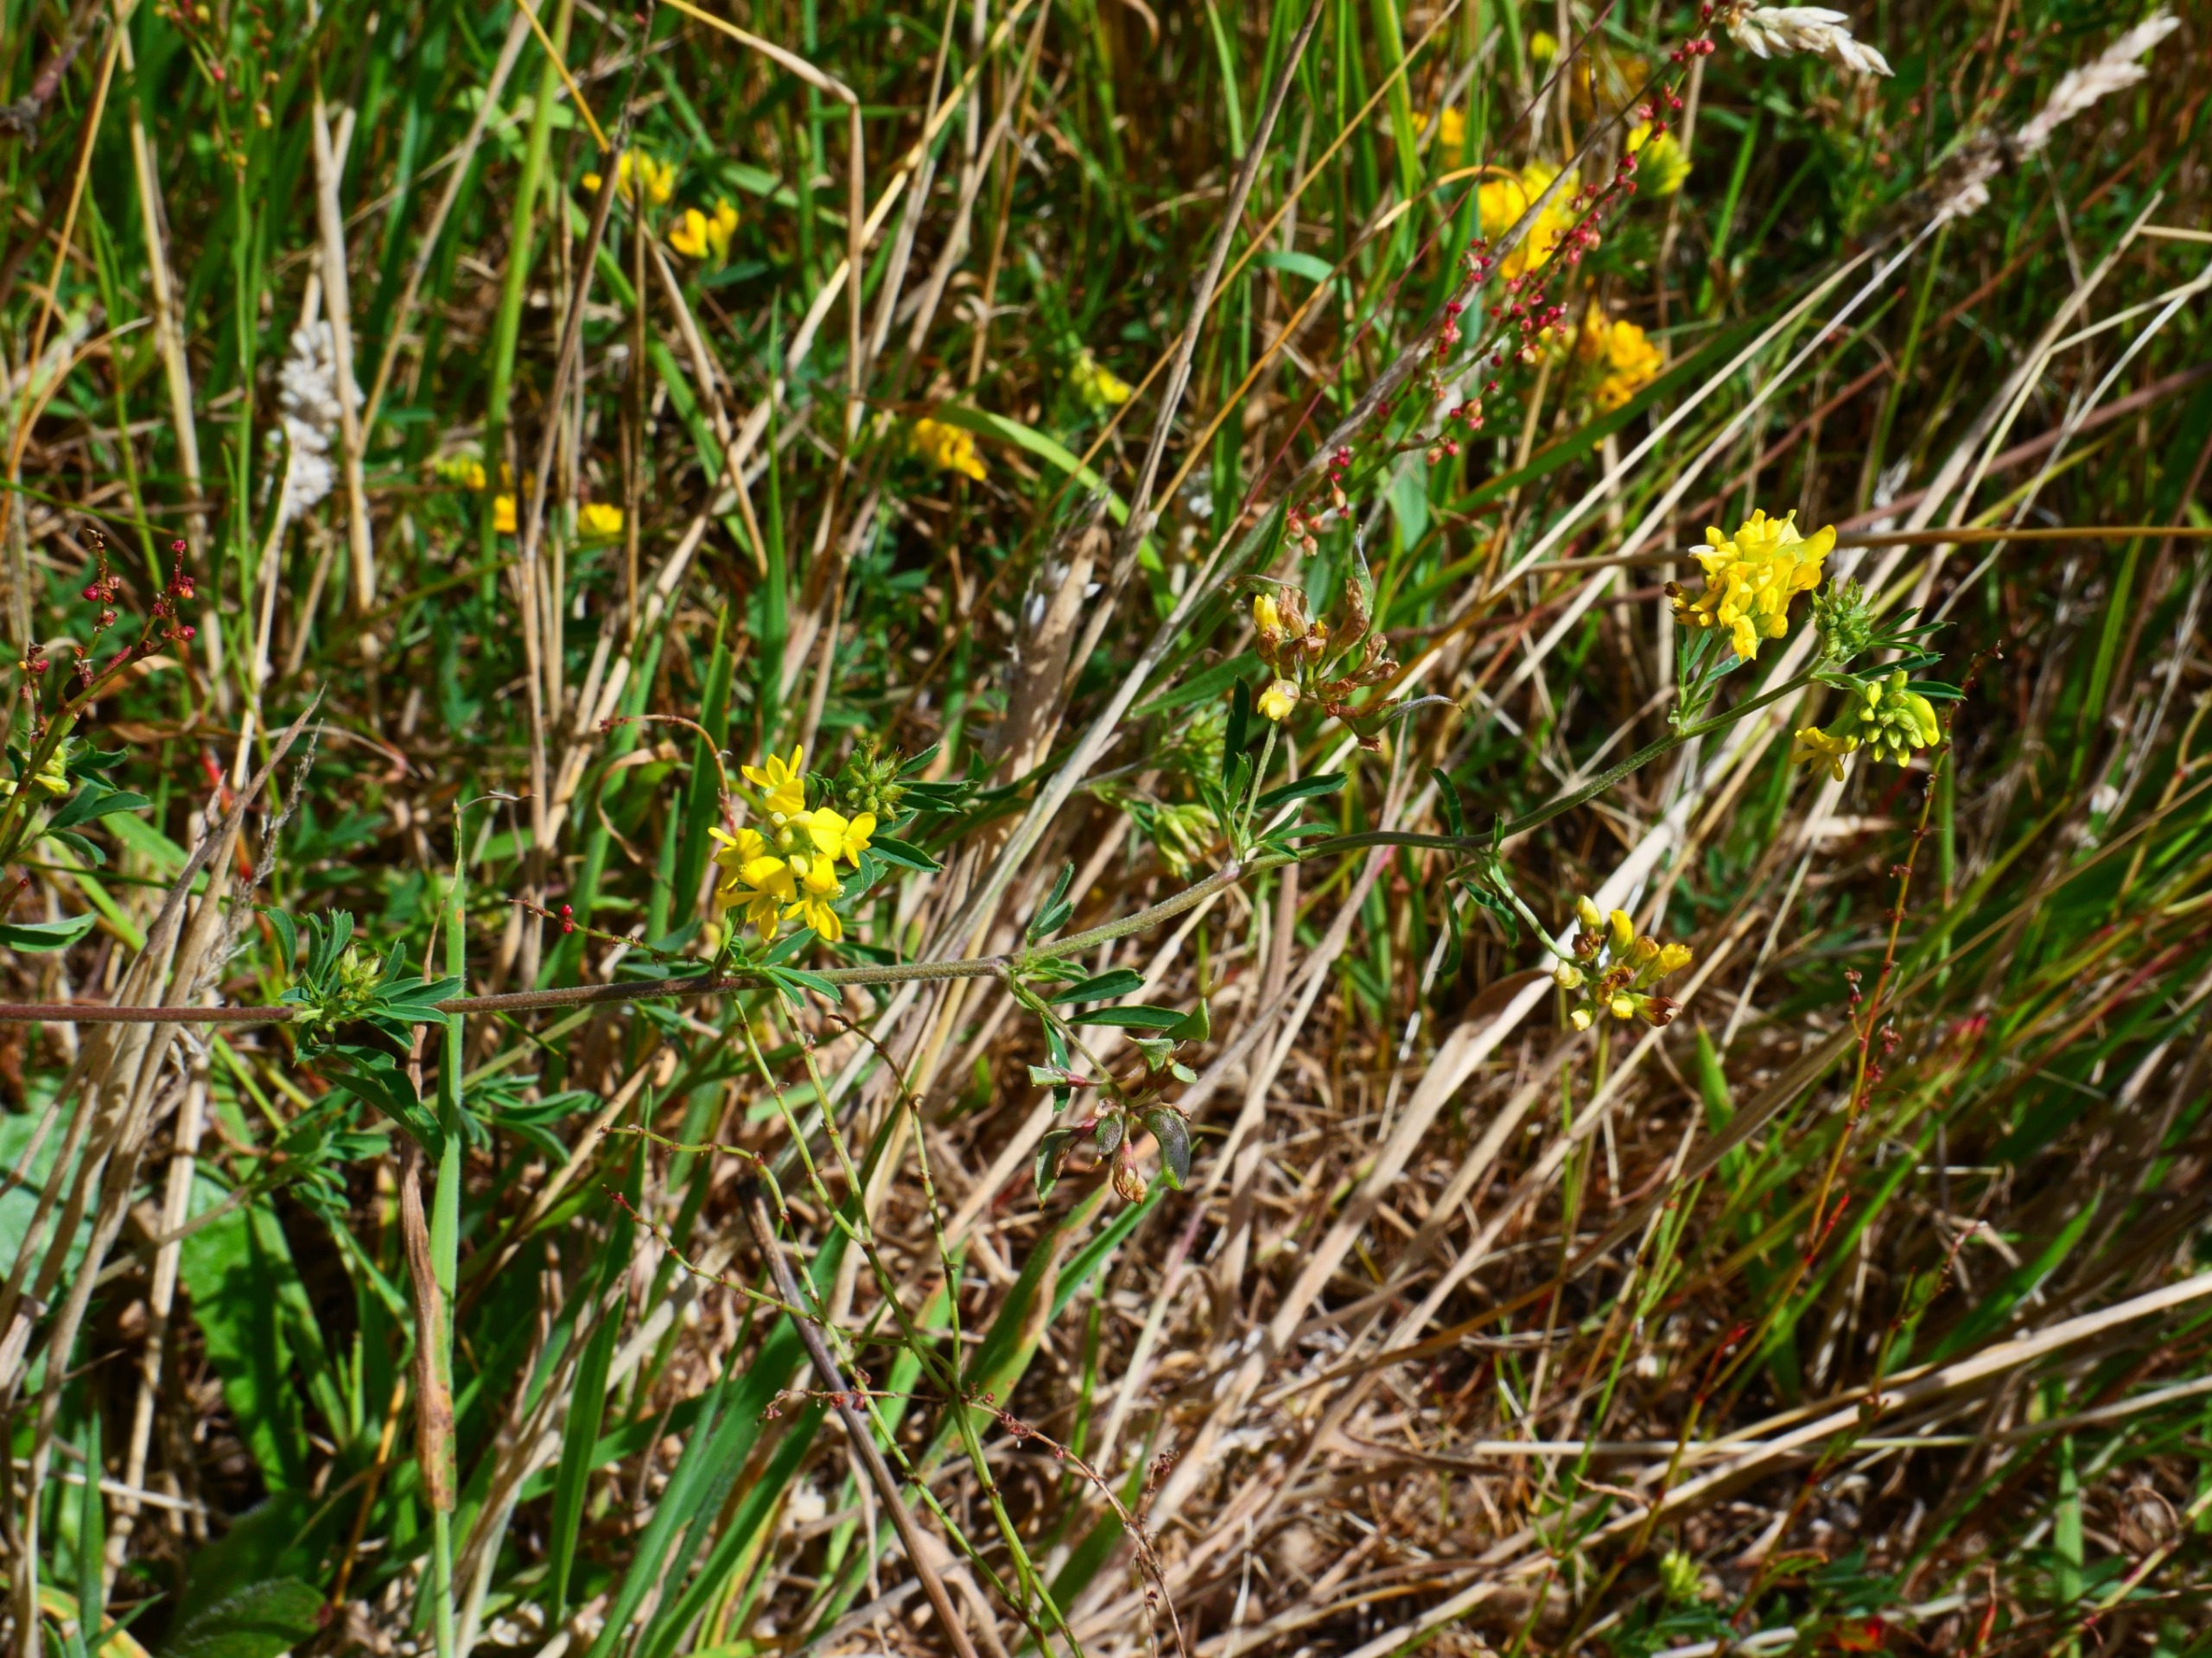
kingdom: Plantae
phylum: Tracheophyta
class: Magnoliopsida
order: Fabales
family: Fabaceae
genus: Medicago
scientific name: Medicago falcata
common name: Segl-sneglebælg
